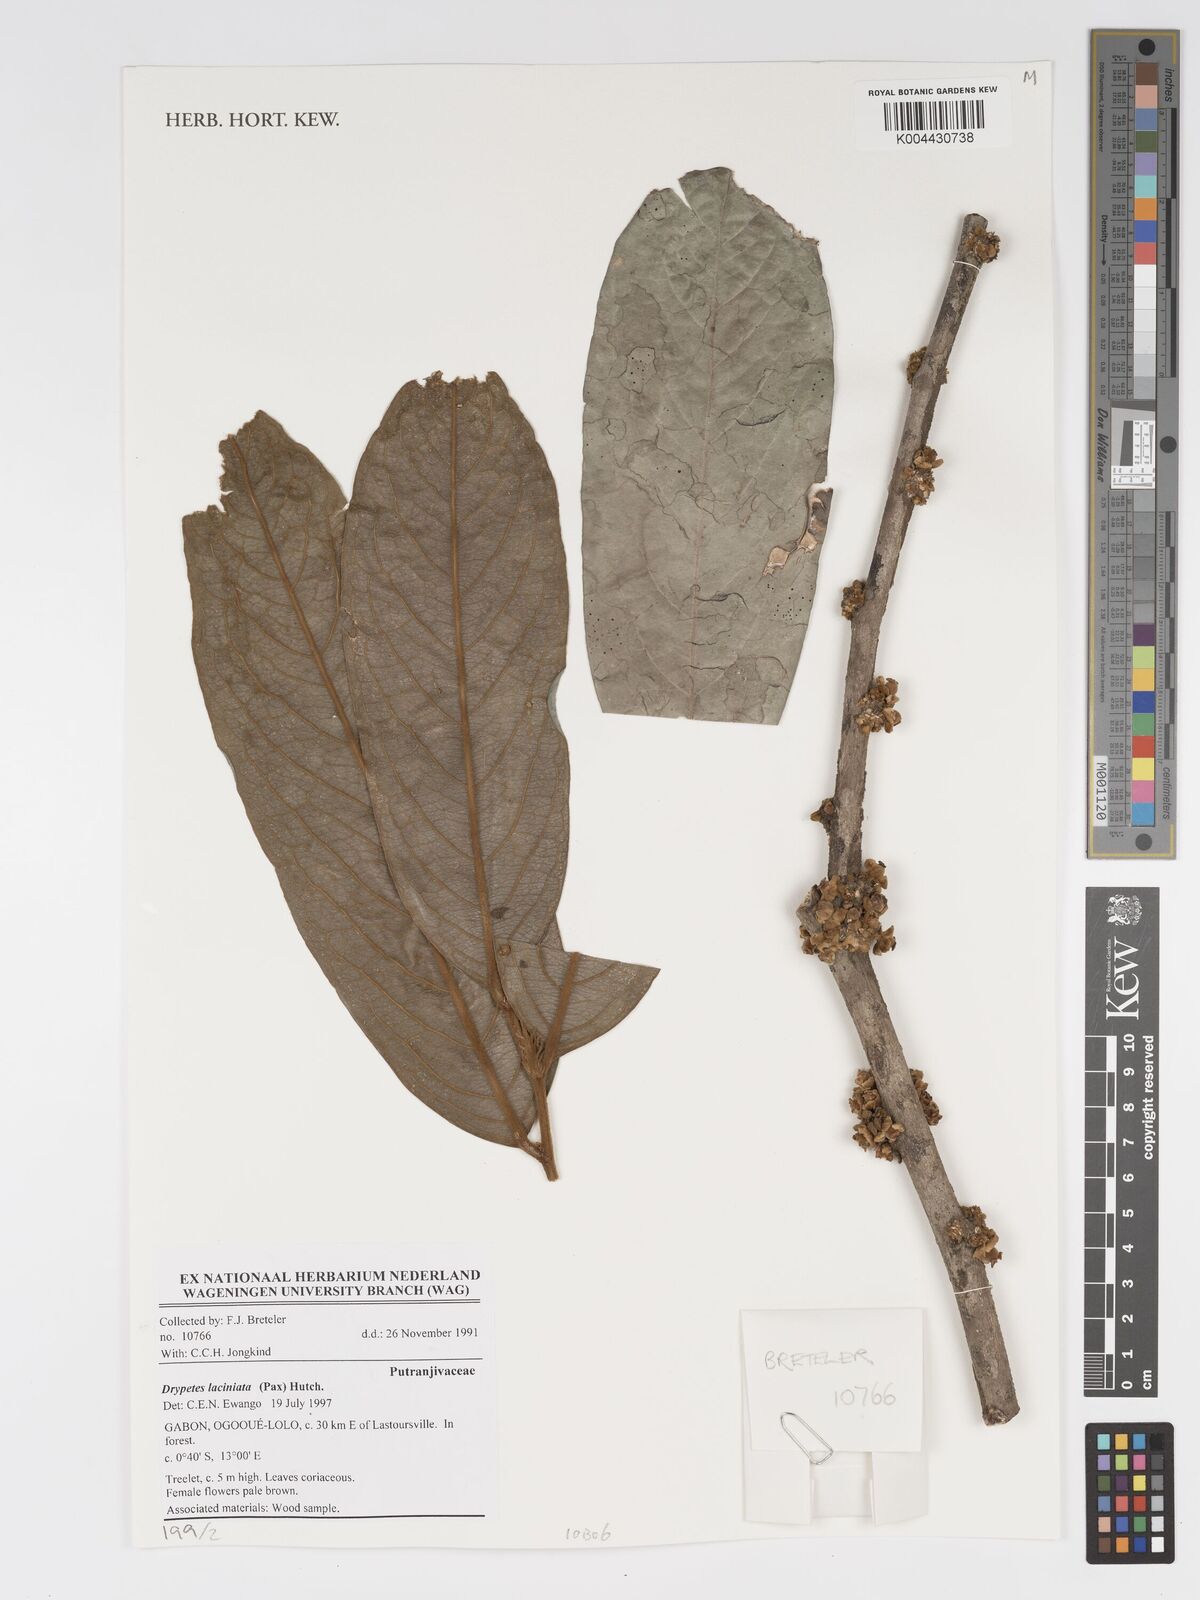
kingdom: Plantae
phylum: Tracheophyta
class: Magnoliopsida
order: Malpighiales
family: Putranjivaceae
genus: Drypetes
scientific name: Drypetes laciniata
